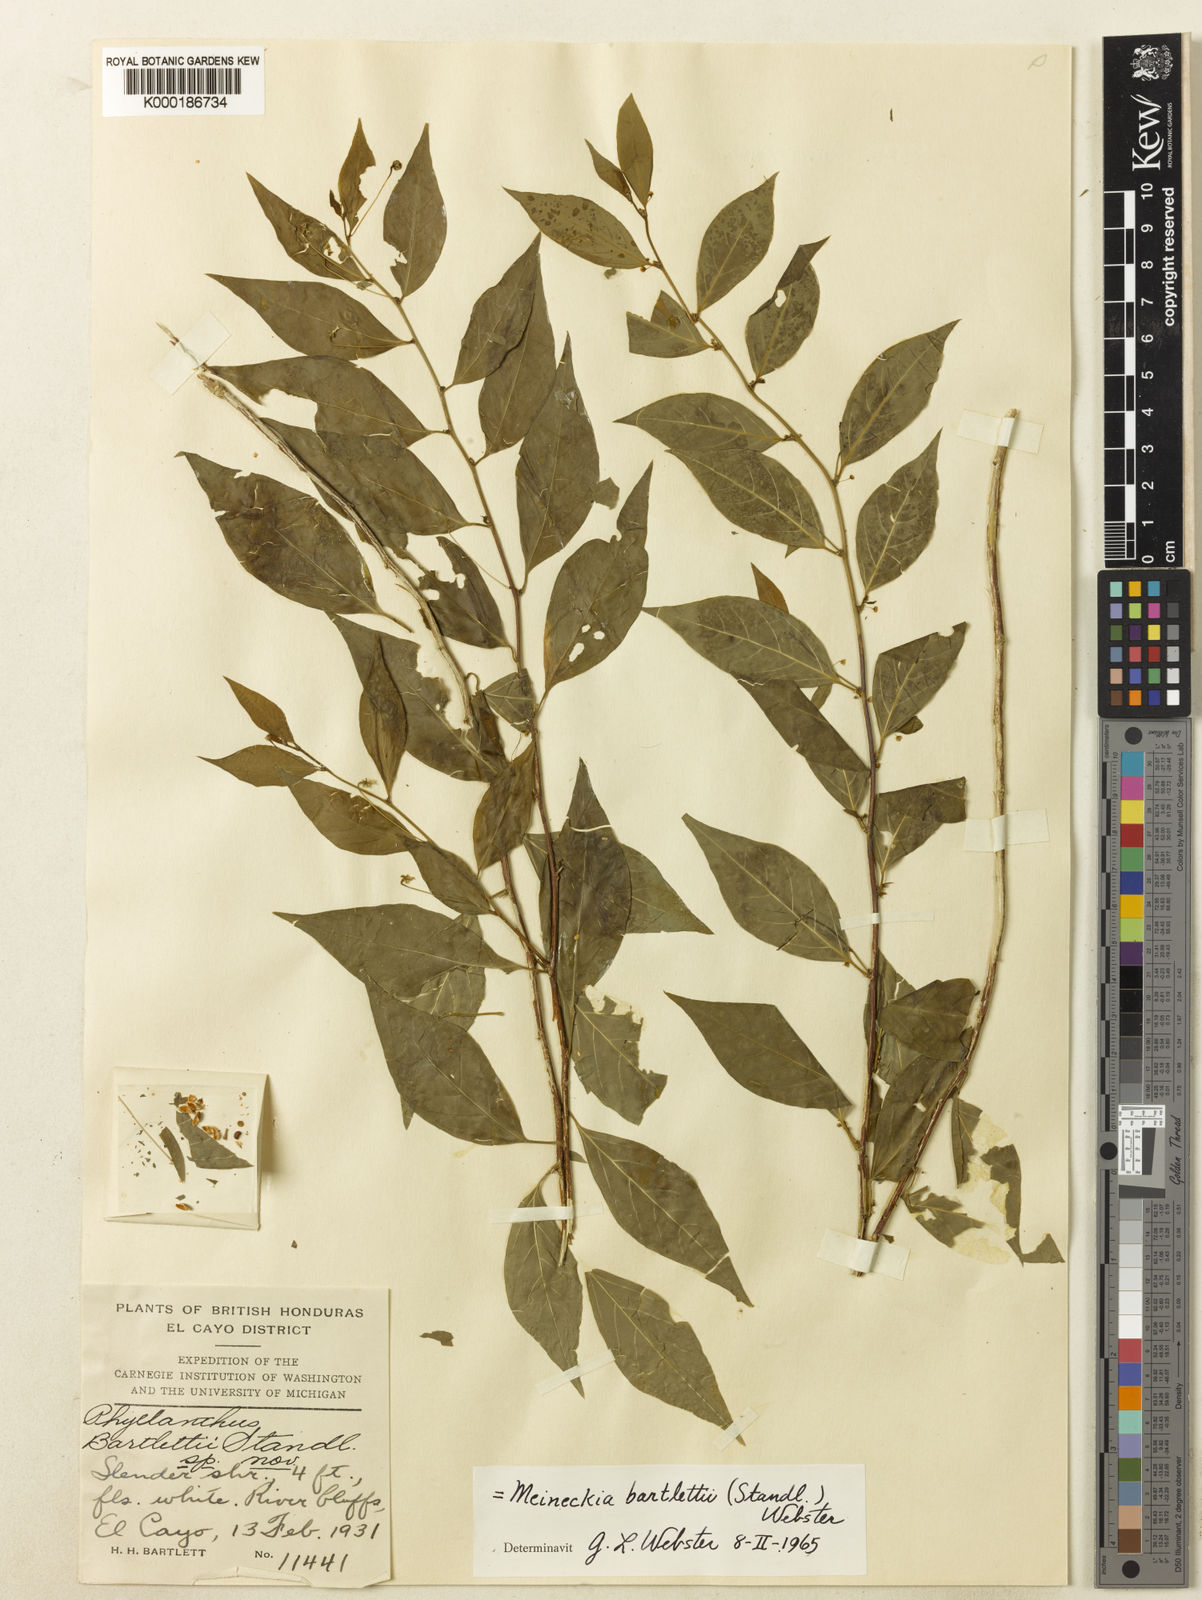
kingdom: Plantae
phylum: Tracheophyta
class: Magnoliopsida
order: Malpighiales
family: Phyllanthaceae
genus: Meineckia
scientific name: Meineckia bartlettii
